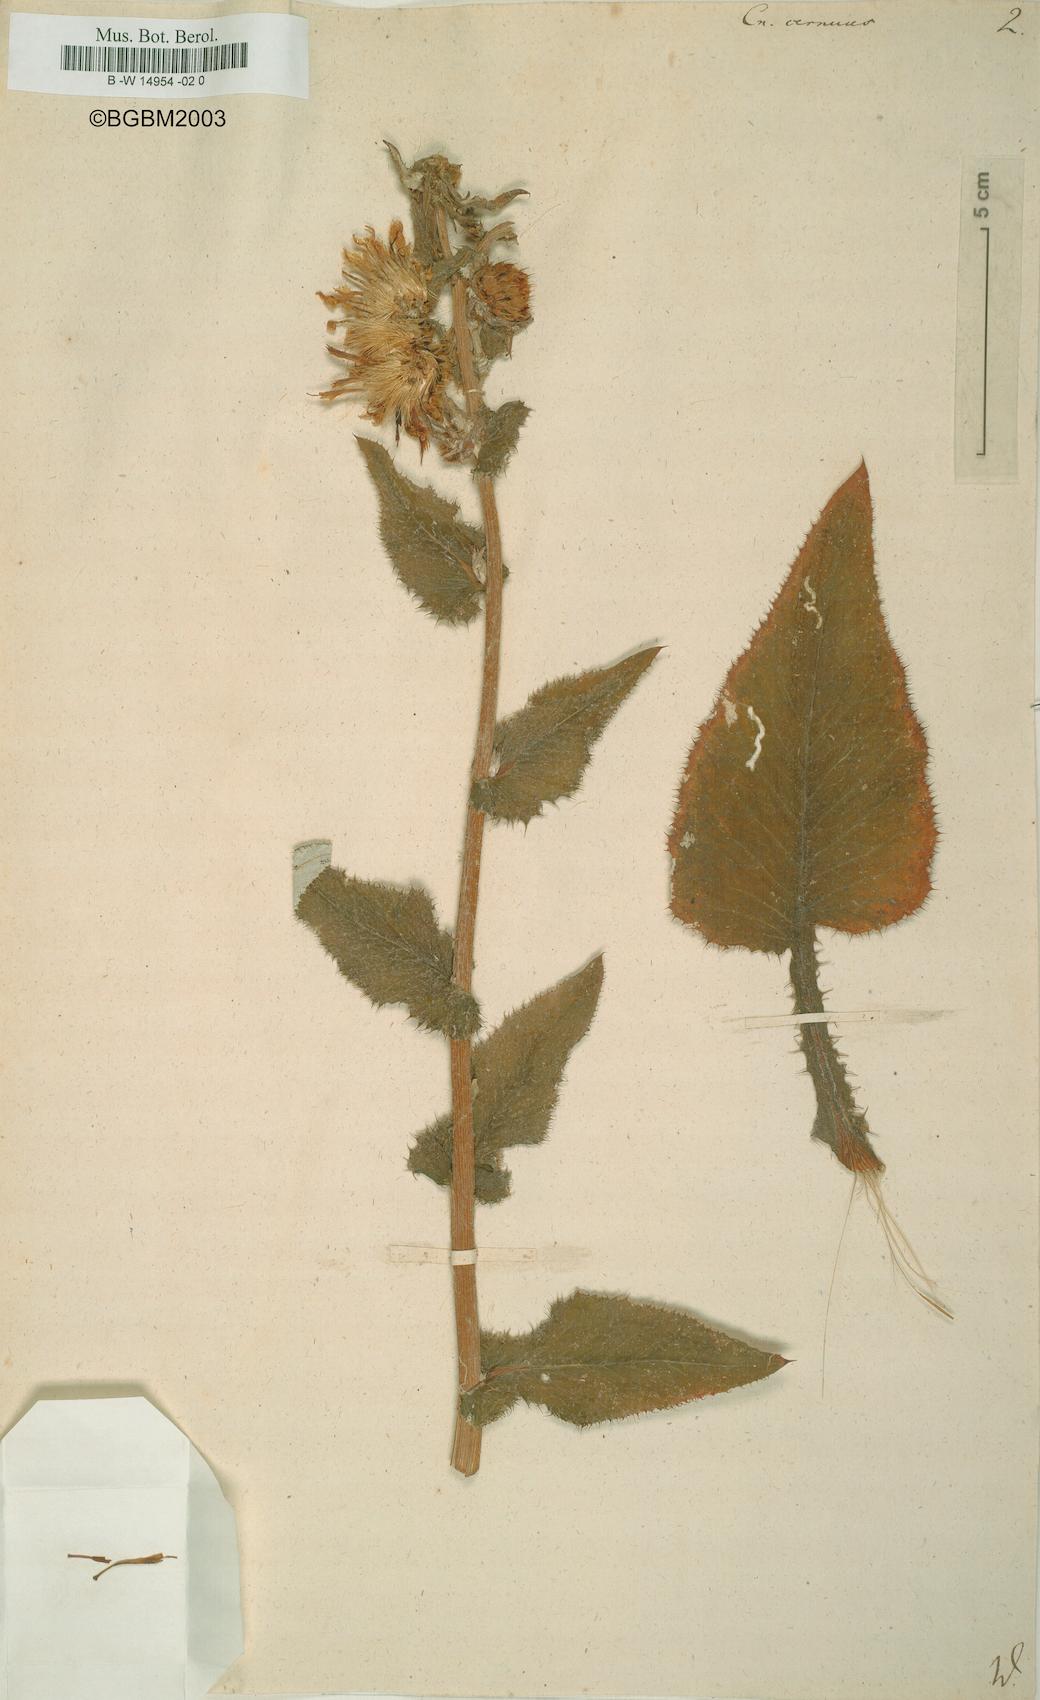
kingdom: Plantae
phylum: Tracheophyta
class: Magnoliopsida
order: Asterales
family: Asteraceae
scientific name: Asteraceae
